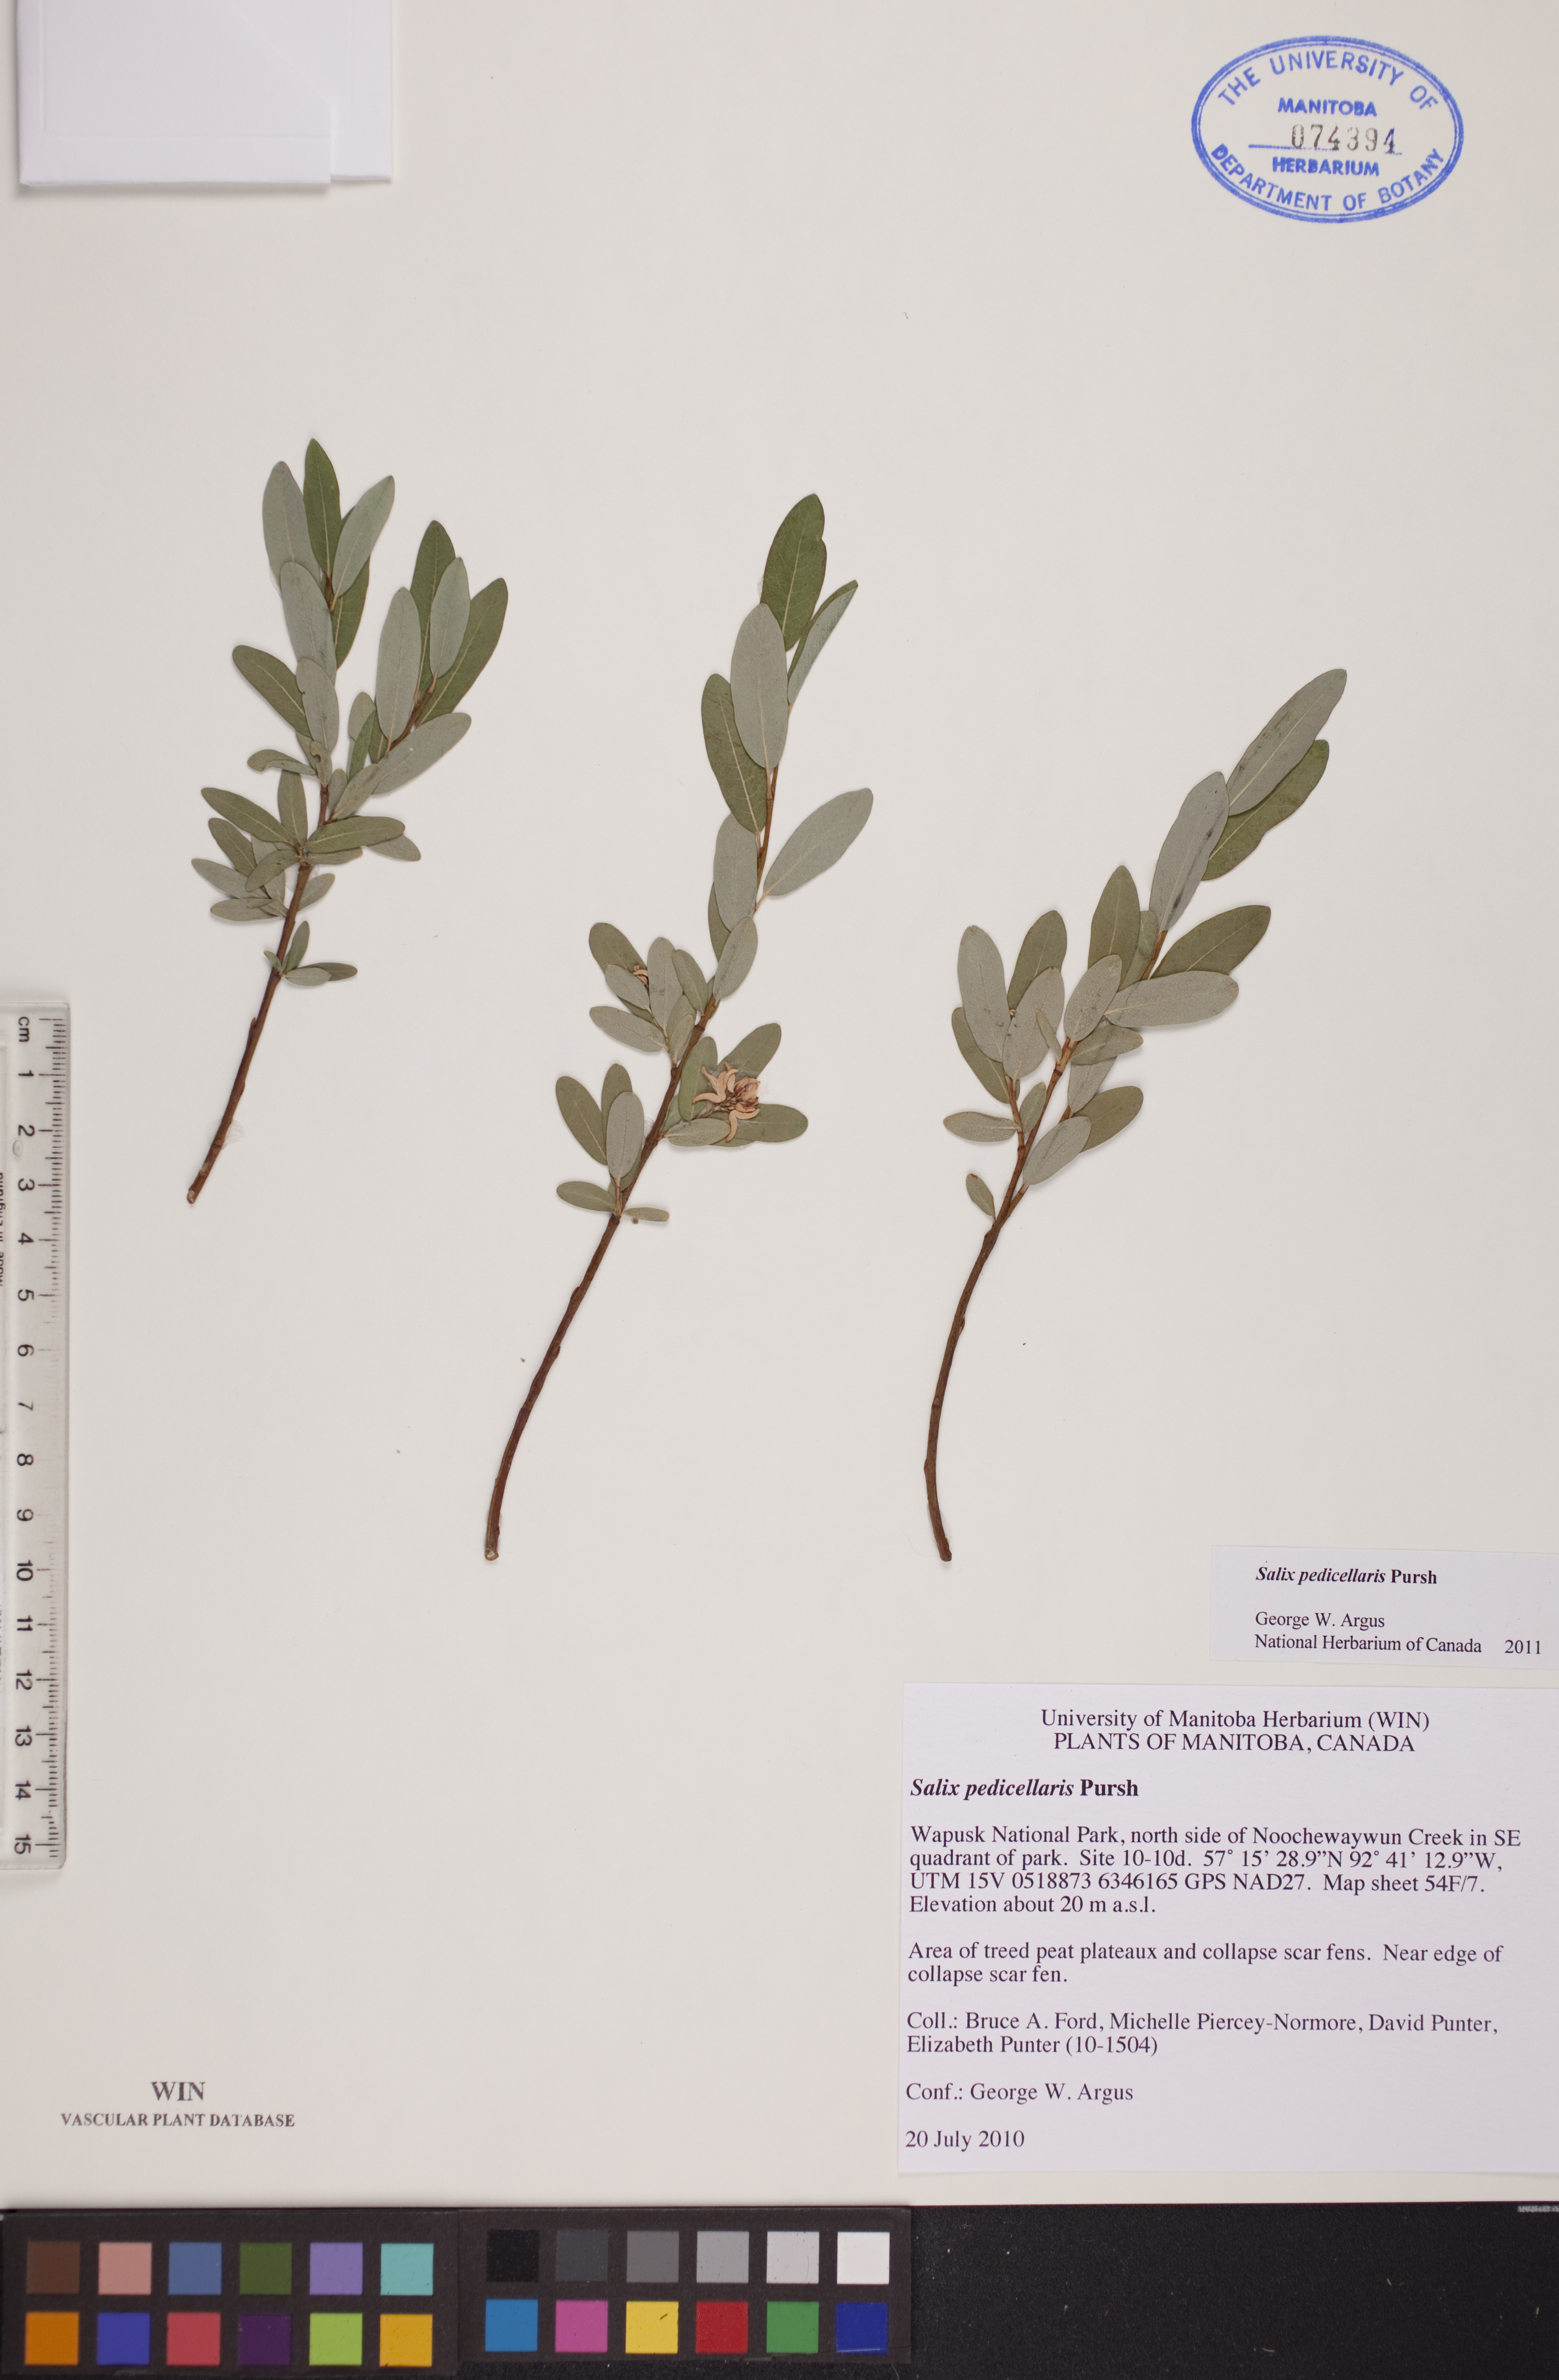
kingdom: Plantae
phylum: Tracheophyta
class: Magnoliopsida
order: Malpighiales
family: Salicaceae
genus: Salix
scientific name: Salix pedicellaris
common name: Bog willow
